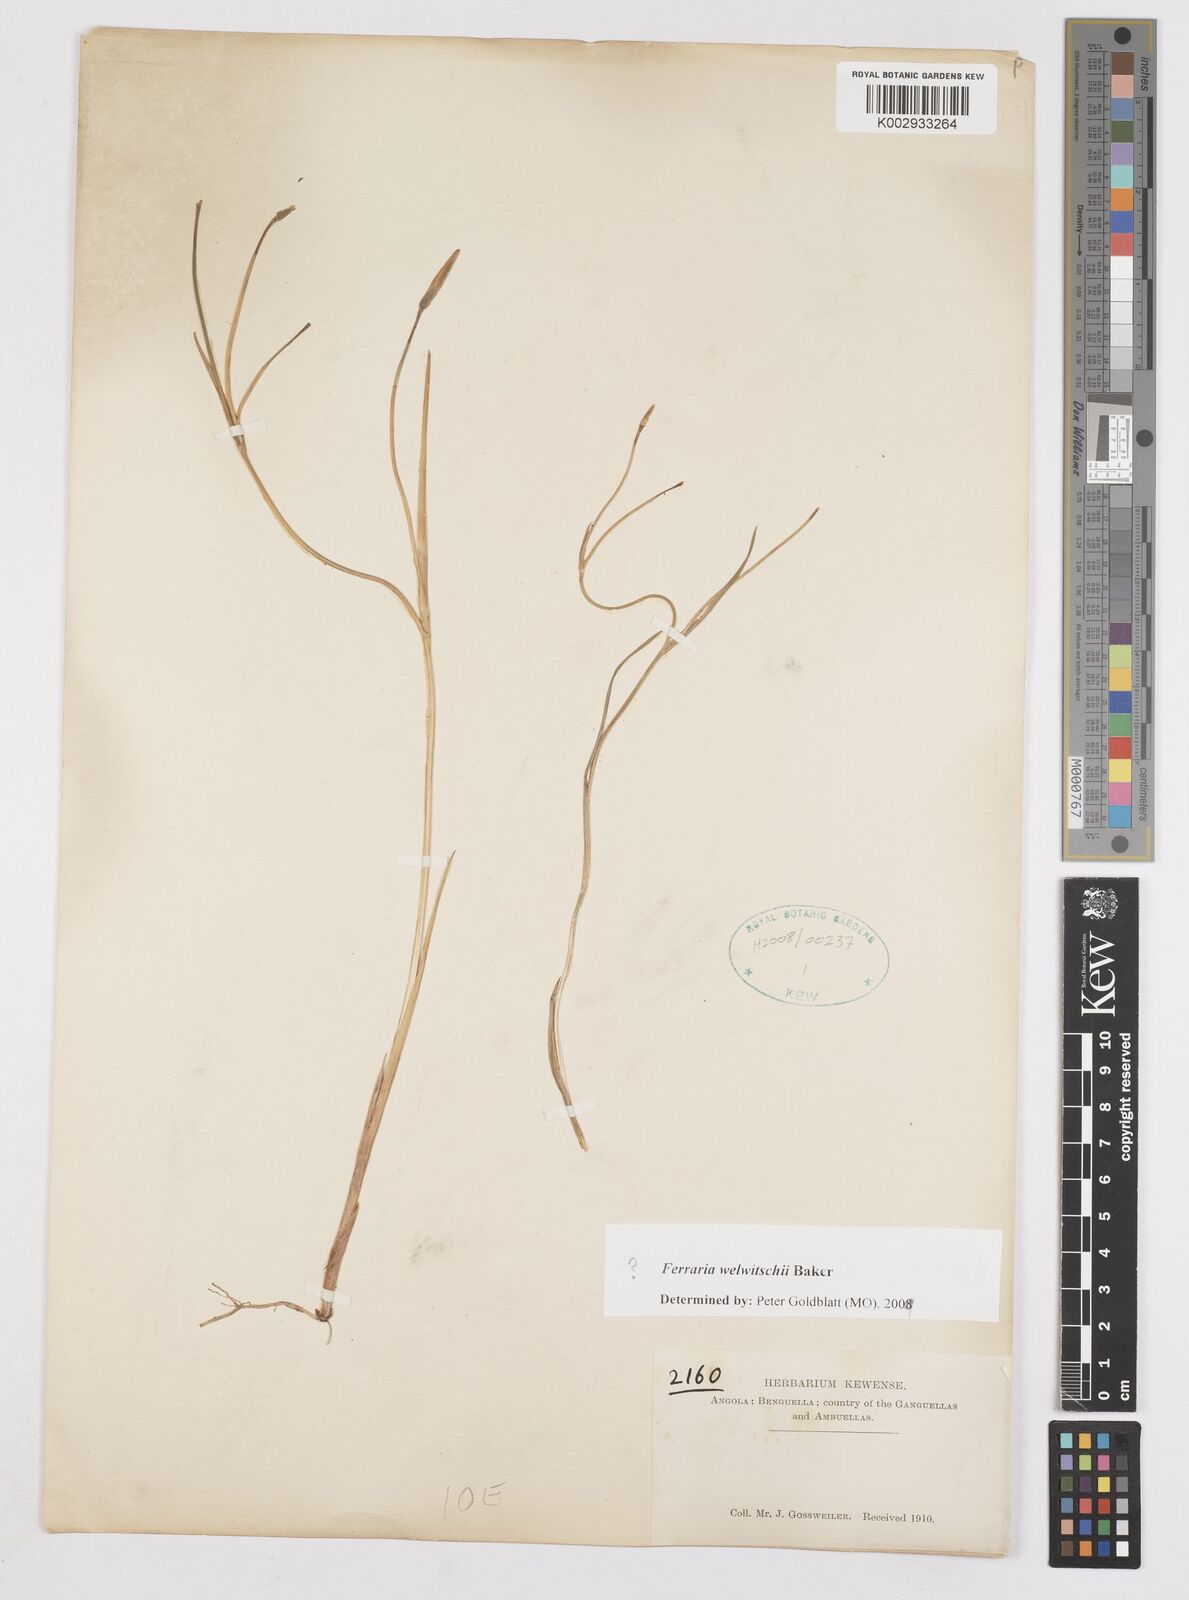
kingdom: Plantae
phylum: Tracheophyta
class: Liliopsida
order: Asparagales
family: Iridaceae
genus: Ferraria
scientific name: Ferraria welwitschii
